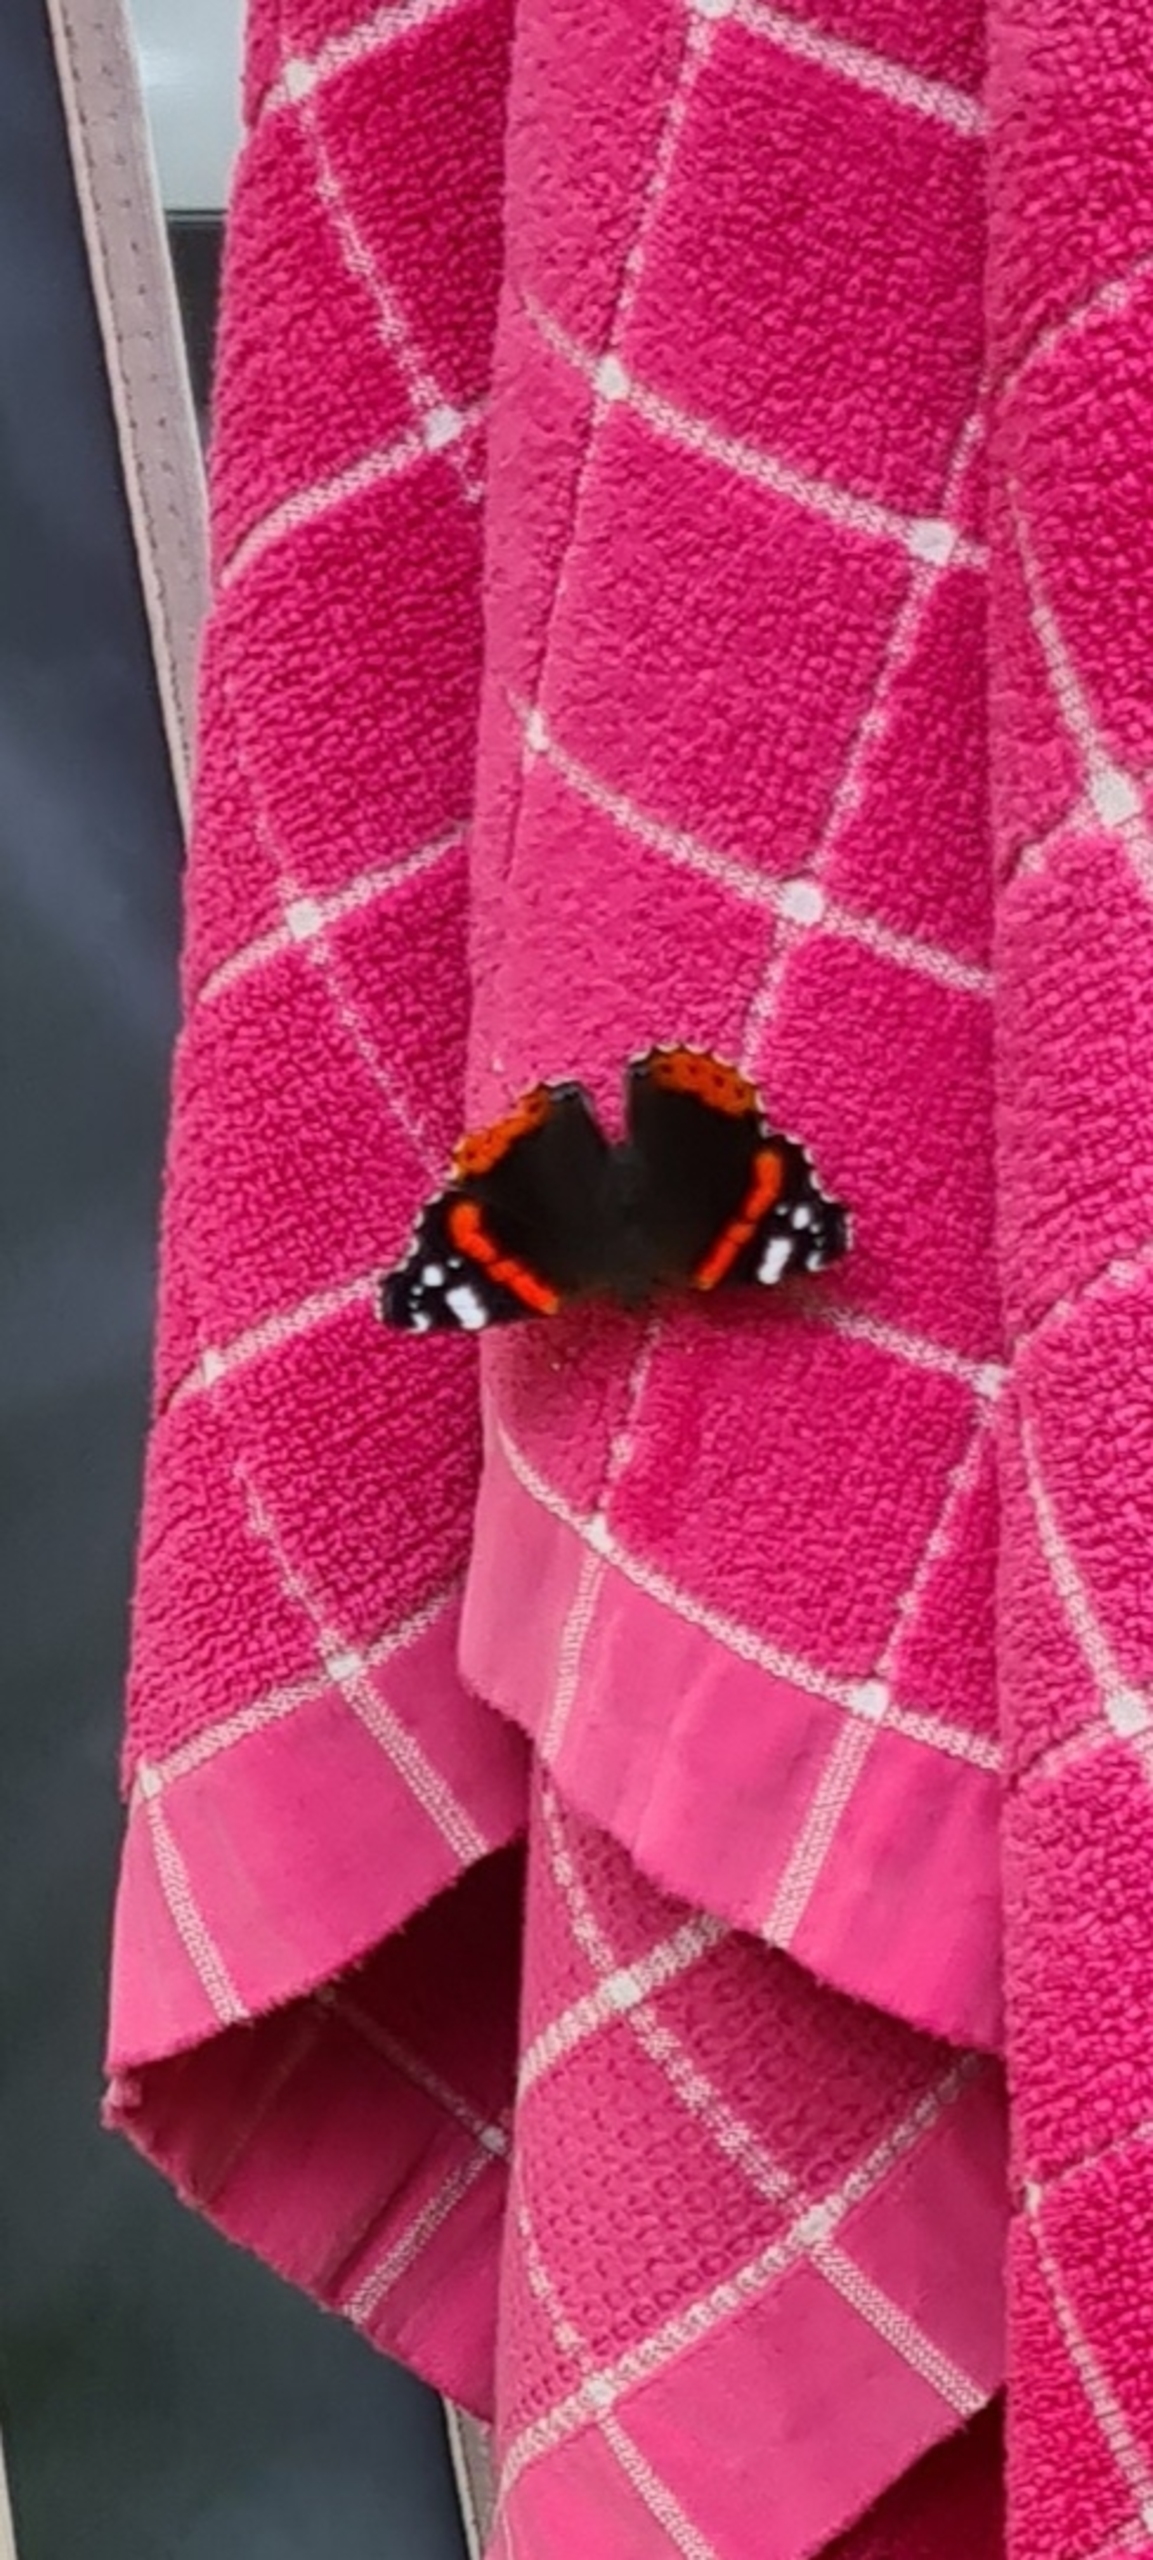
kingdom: Animalia
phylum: Arthropoda
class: Insecta
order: Lepidoptera
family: Nymphalidae
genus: Vanessa
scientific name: Vanessa atalanta
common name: Admiral
